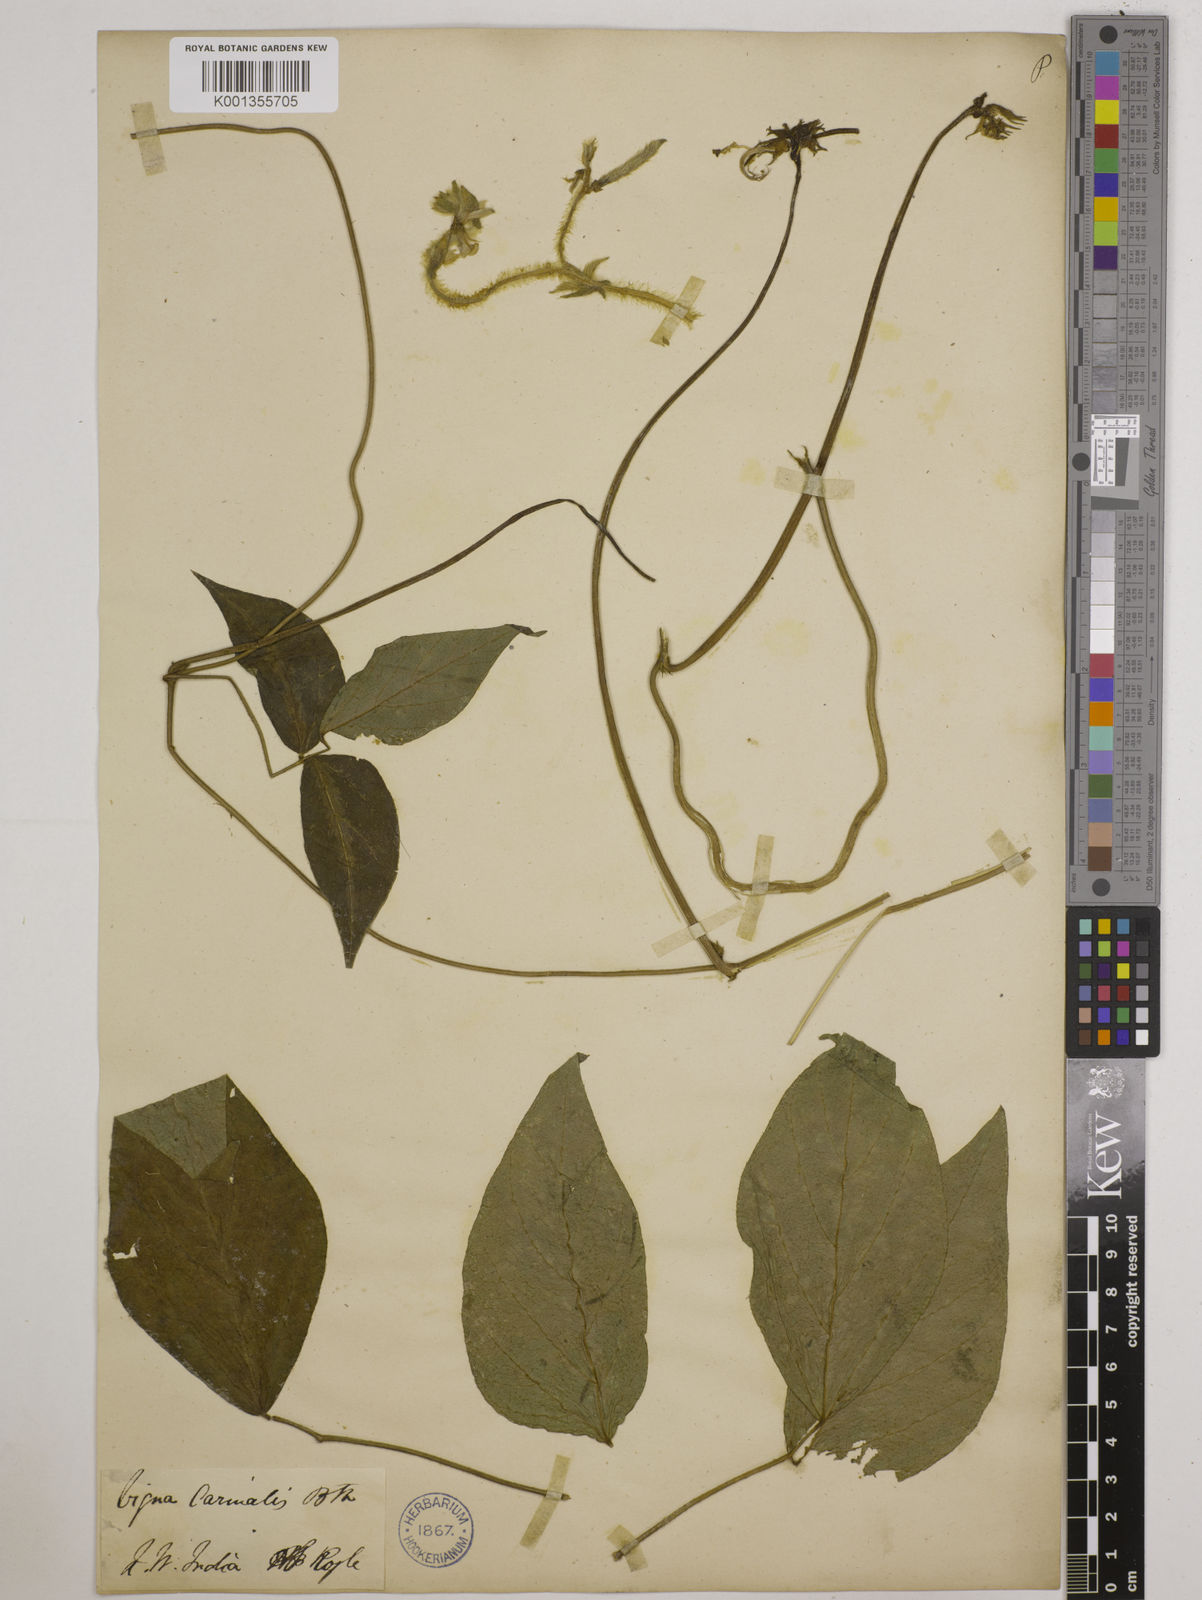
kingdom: Plantae
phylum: Tracheophyta
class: Magnoliopsida
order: Fabales
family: Fabaceae
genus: Vigna
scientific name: Vigna vexillata
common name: Zombi pea
